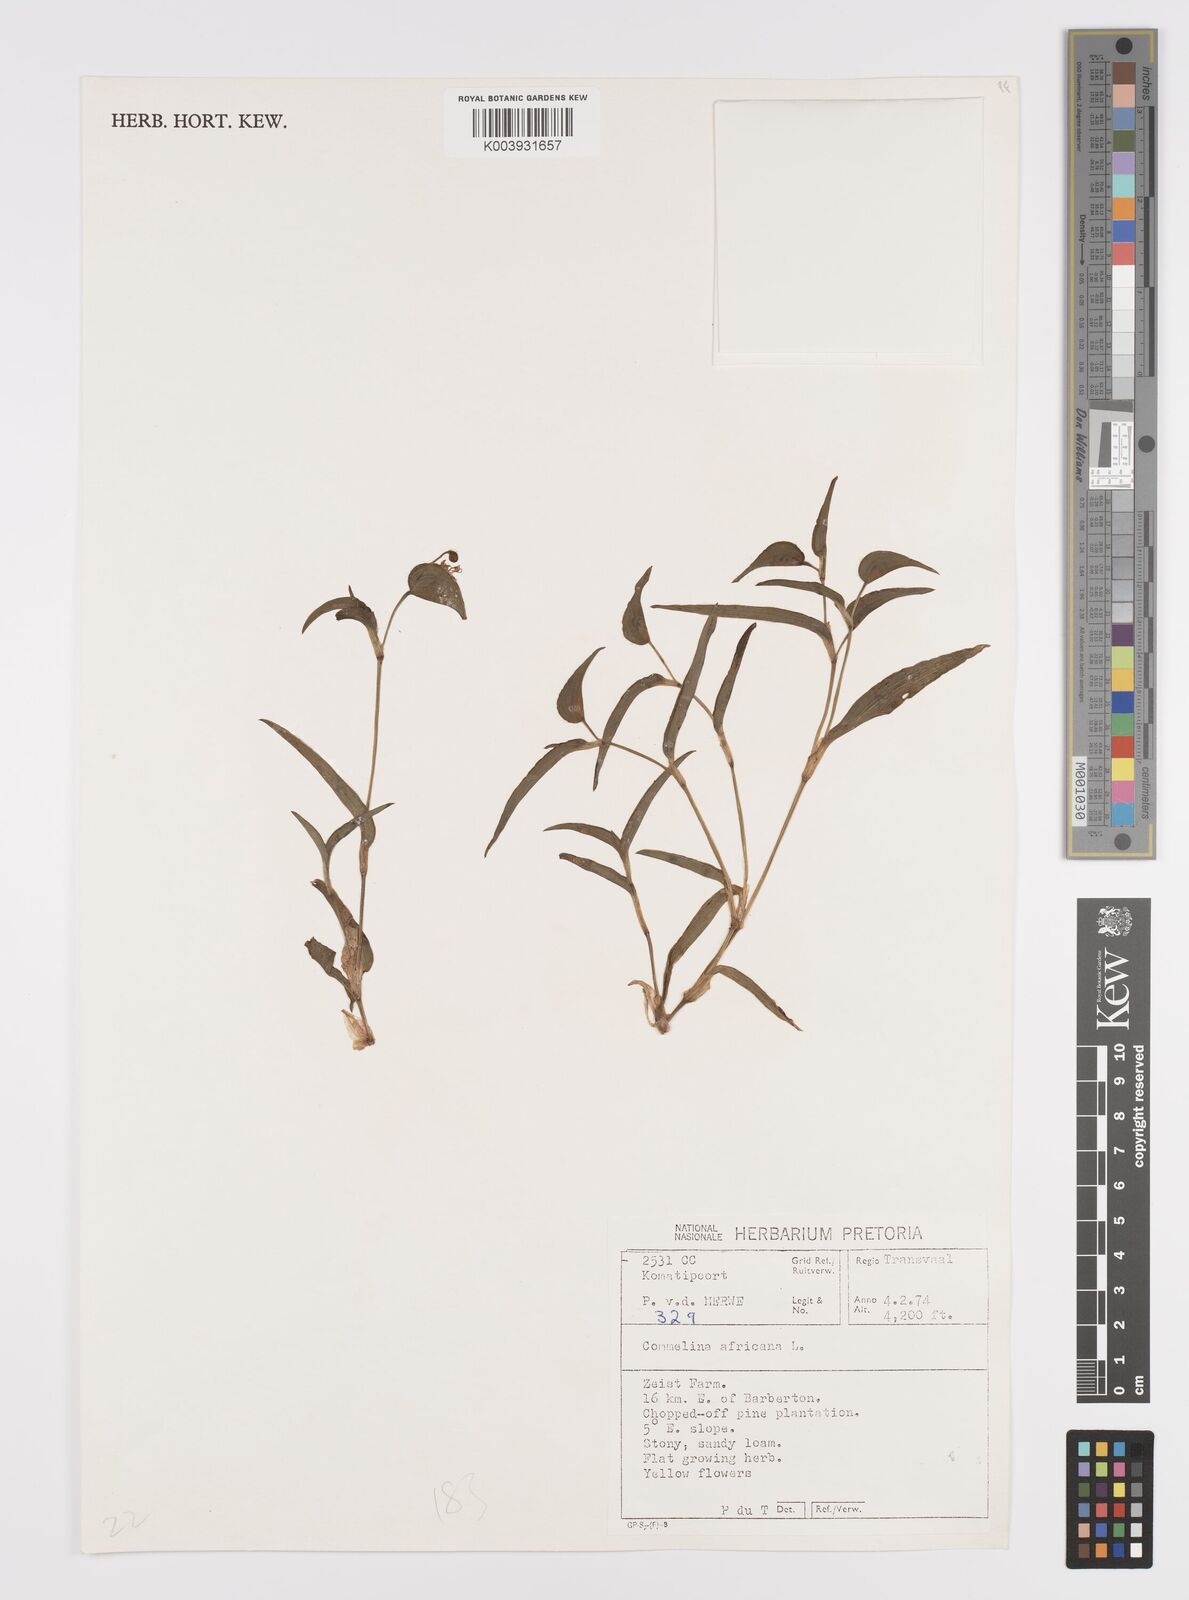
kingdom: Plantae
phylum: Tracheophyta
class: Liliopsida
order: Commelinales
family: Commelinaceae
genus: Commelina
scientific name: Commelina africana
